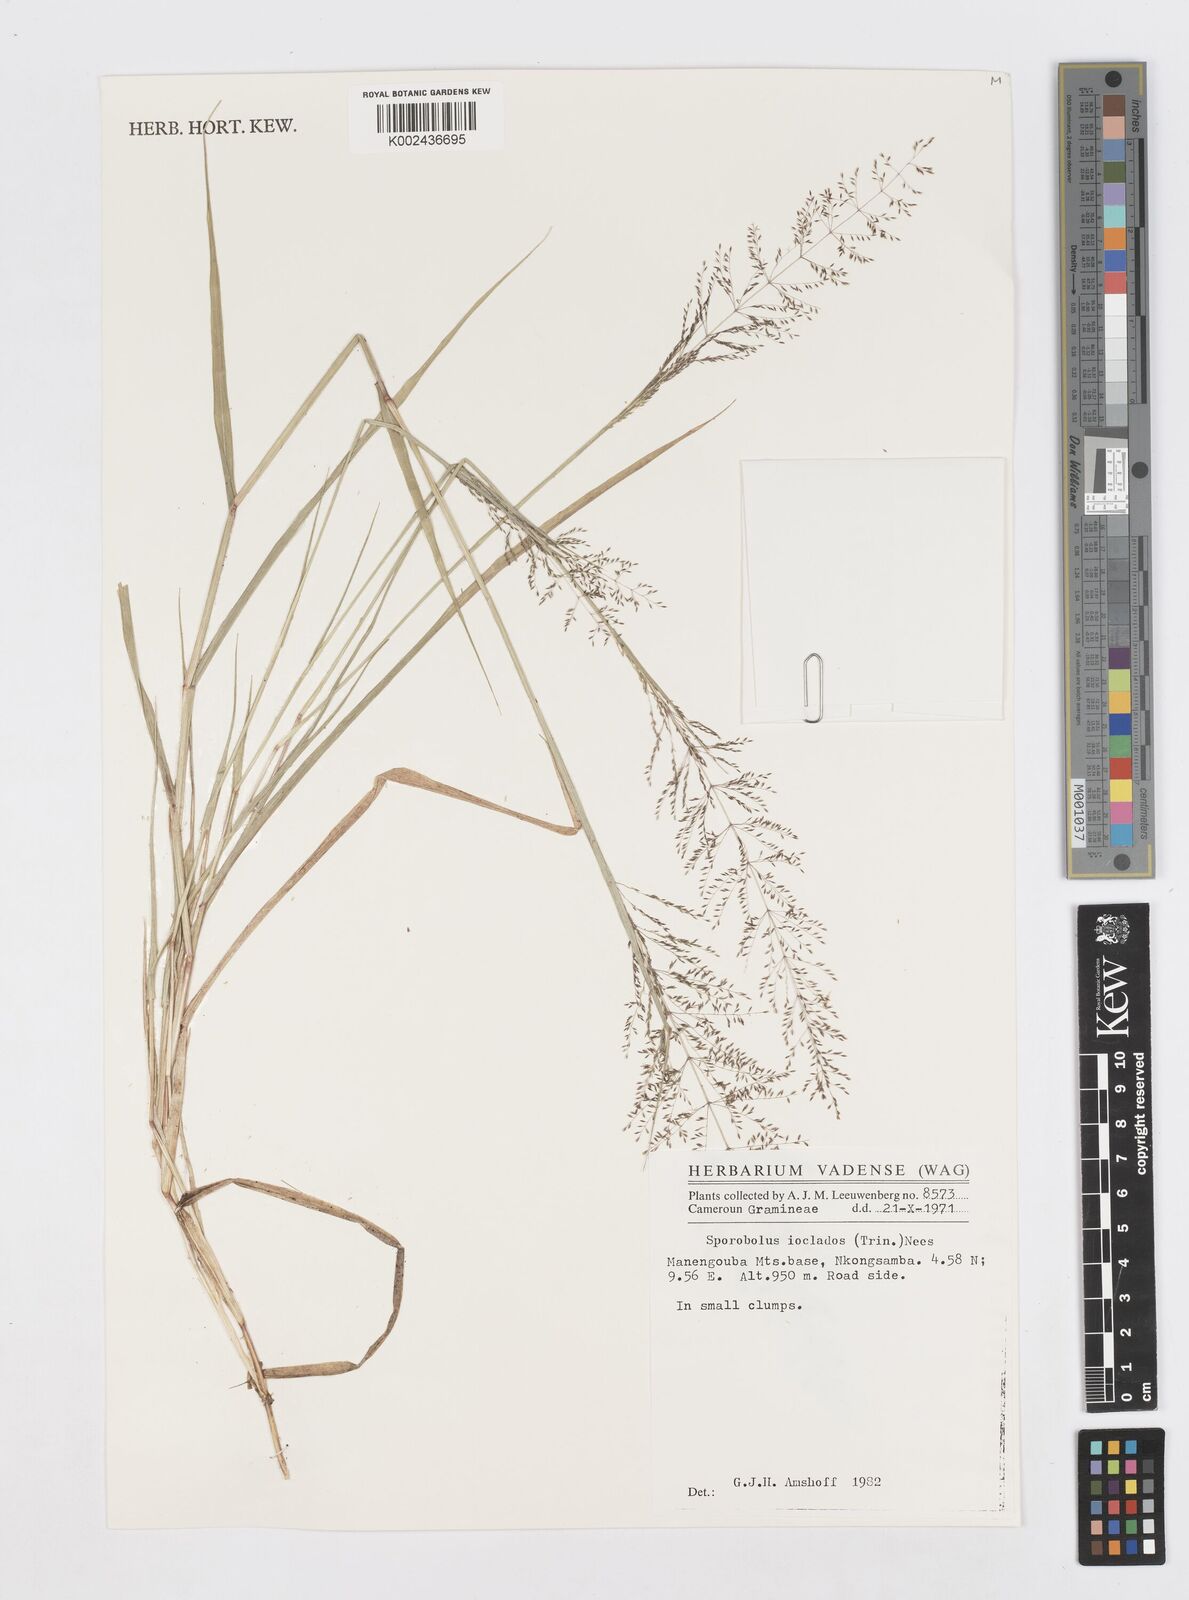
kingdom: Plantae
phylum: Tracheophyta
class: Liliopsida
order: Poales
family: Poaceae
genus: Sporobolus
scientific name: Sporobolus ioclados
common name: Pan dropseed
